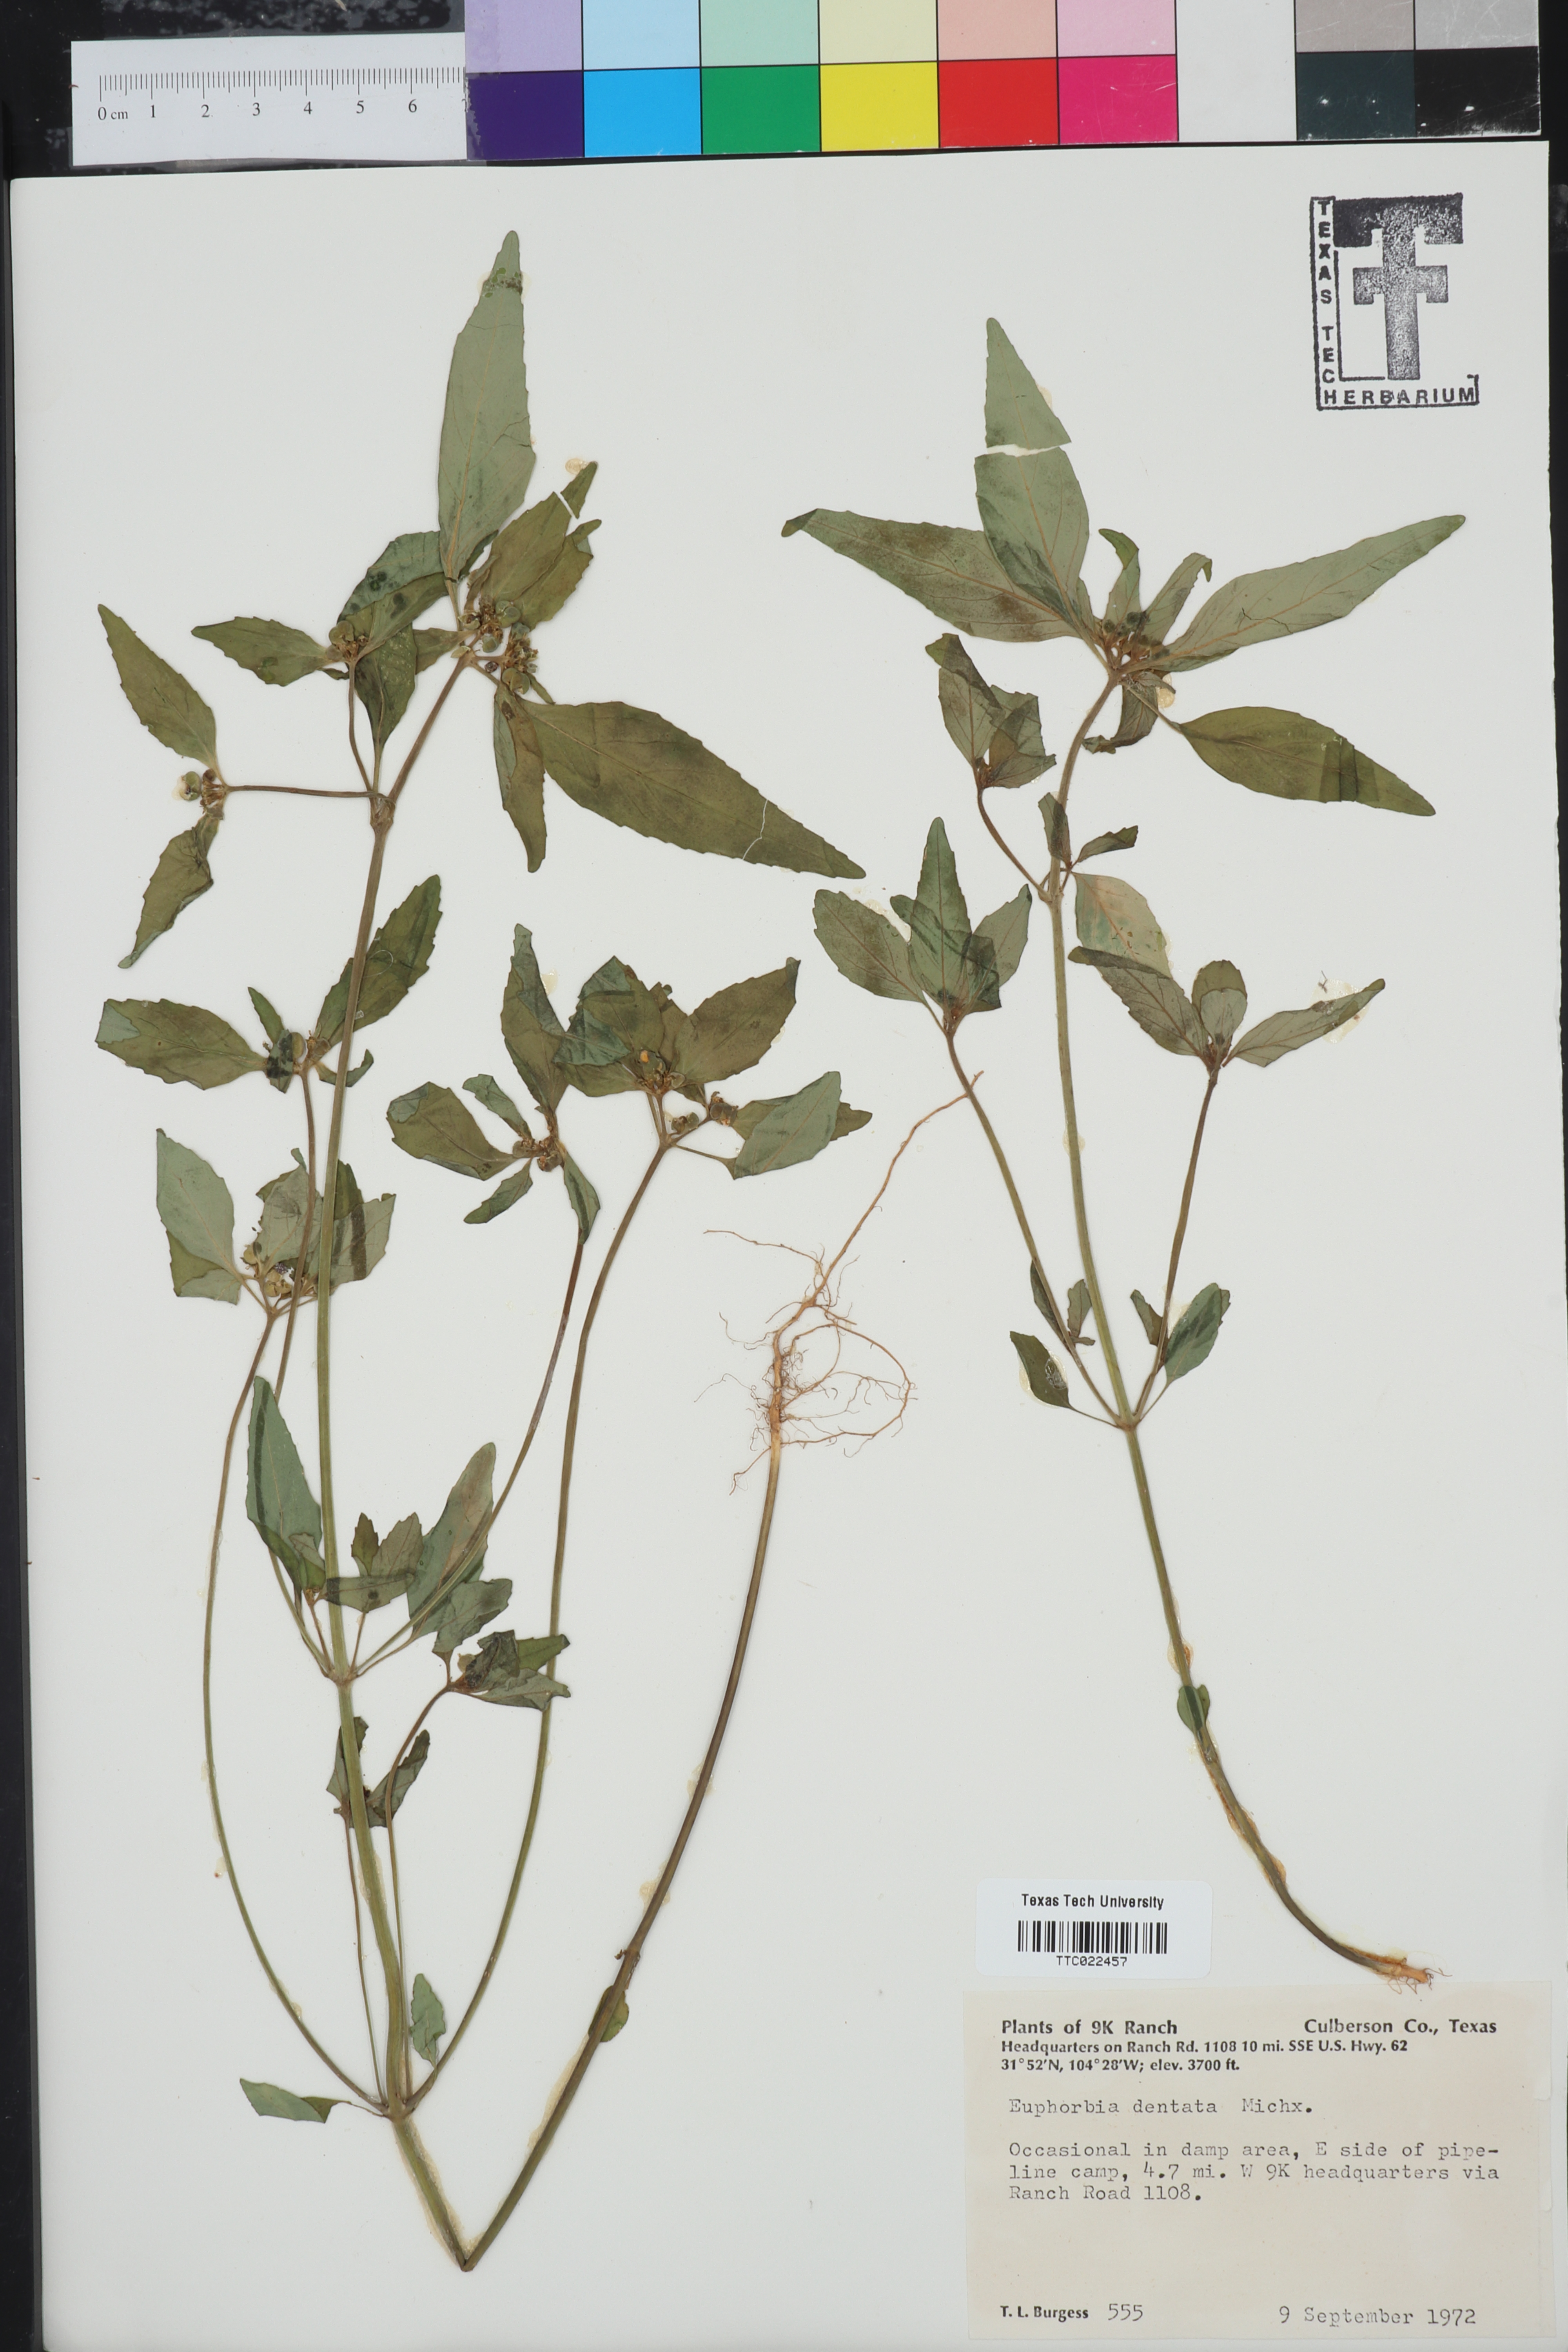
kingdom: Plantae
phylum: Tracheophyta
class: Magnoliopsida
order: Malpighiales
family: Euphorbiaceae
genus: Euphorbia
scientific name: Euphorbia dentata
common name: Dentate spurge
